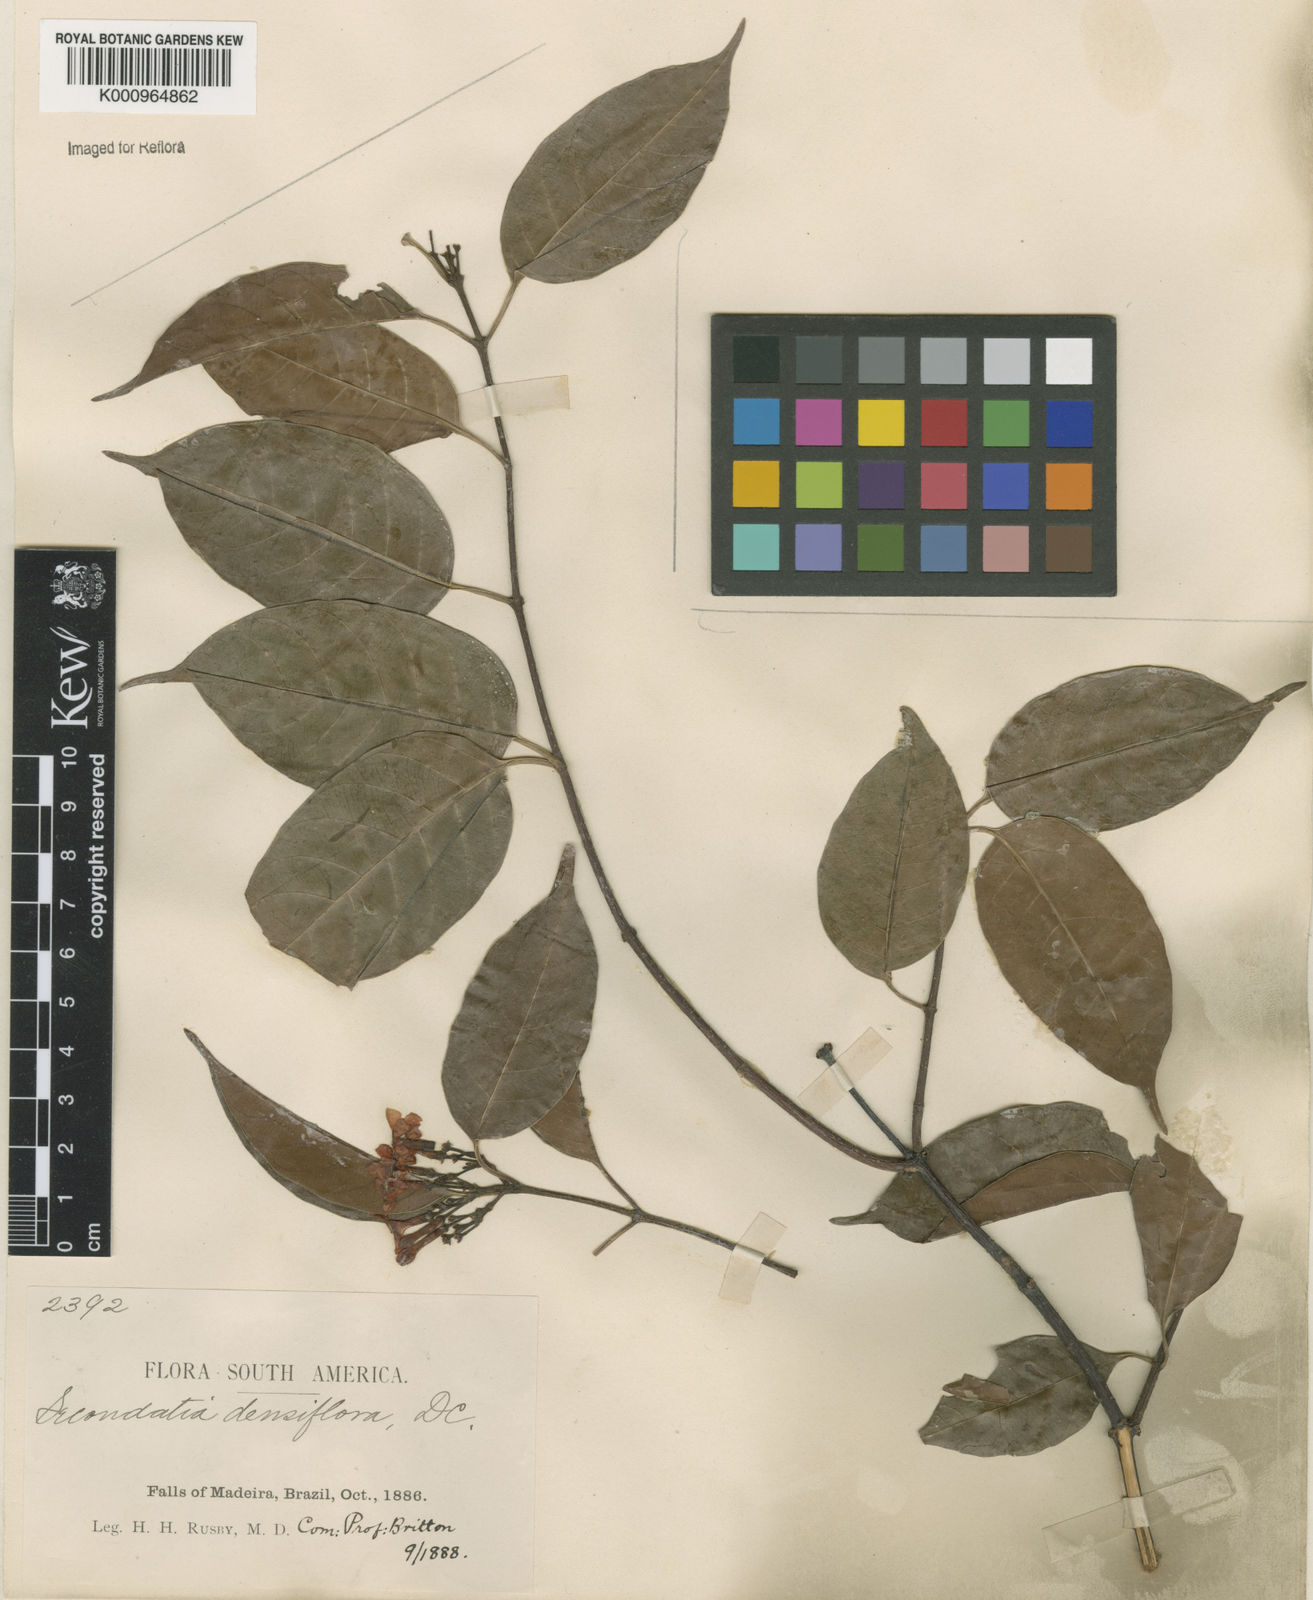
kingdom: Plantae
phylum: Tracheophyta
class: Magnoliopsida
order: Gentianales
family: Apocynaceae
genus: Secondatia
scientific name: Secondatia densiflora
